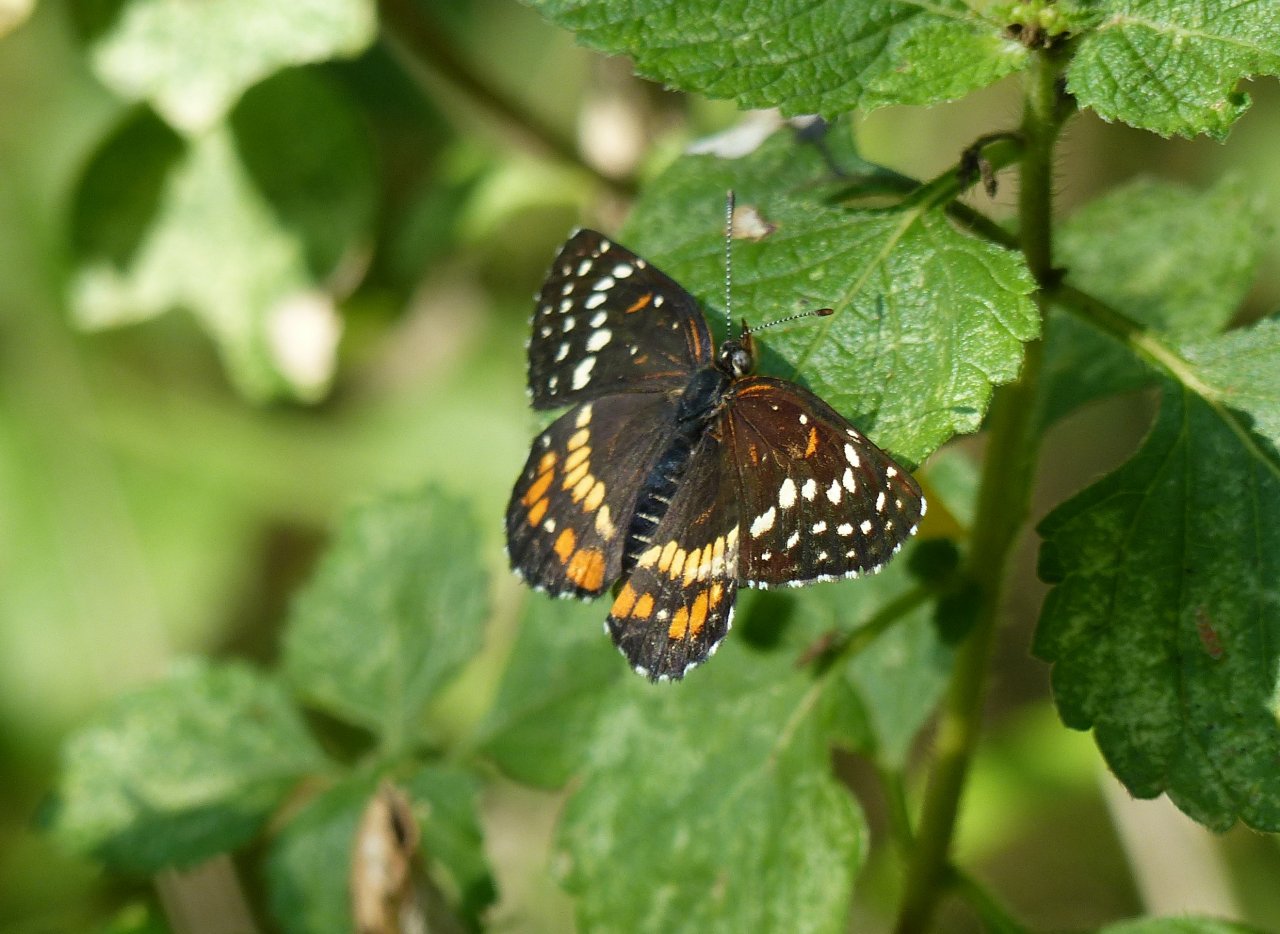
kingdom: Animalia
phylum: Arthropoda
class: Insecta
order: Lepidoptera
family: Nymphalidae
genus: Chlosyne
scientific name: Chlosyne endeis
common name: Banded Patch
